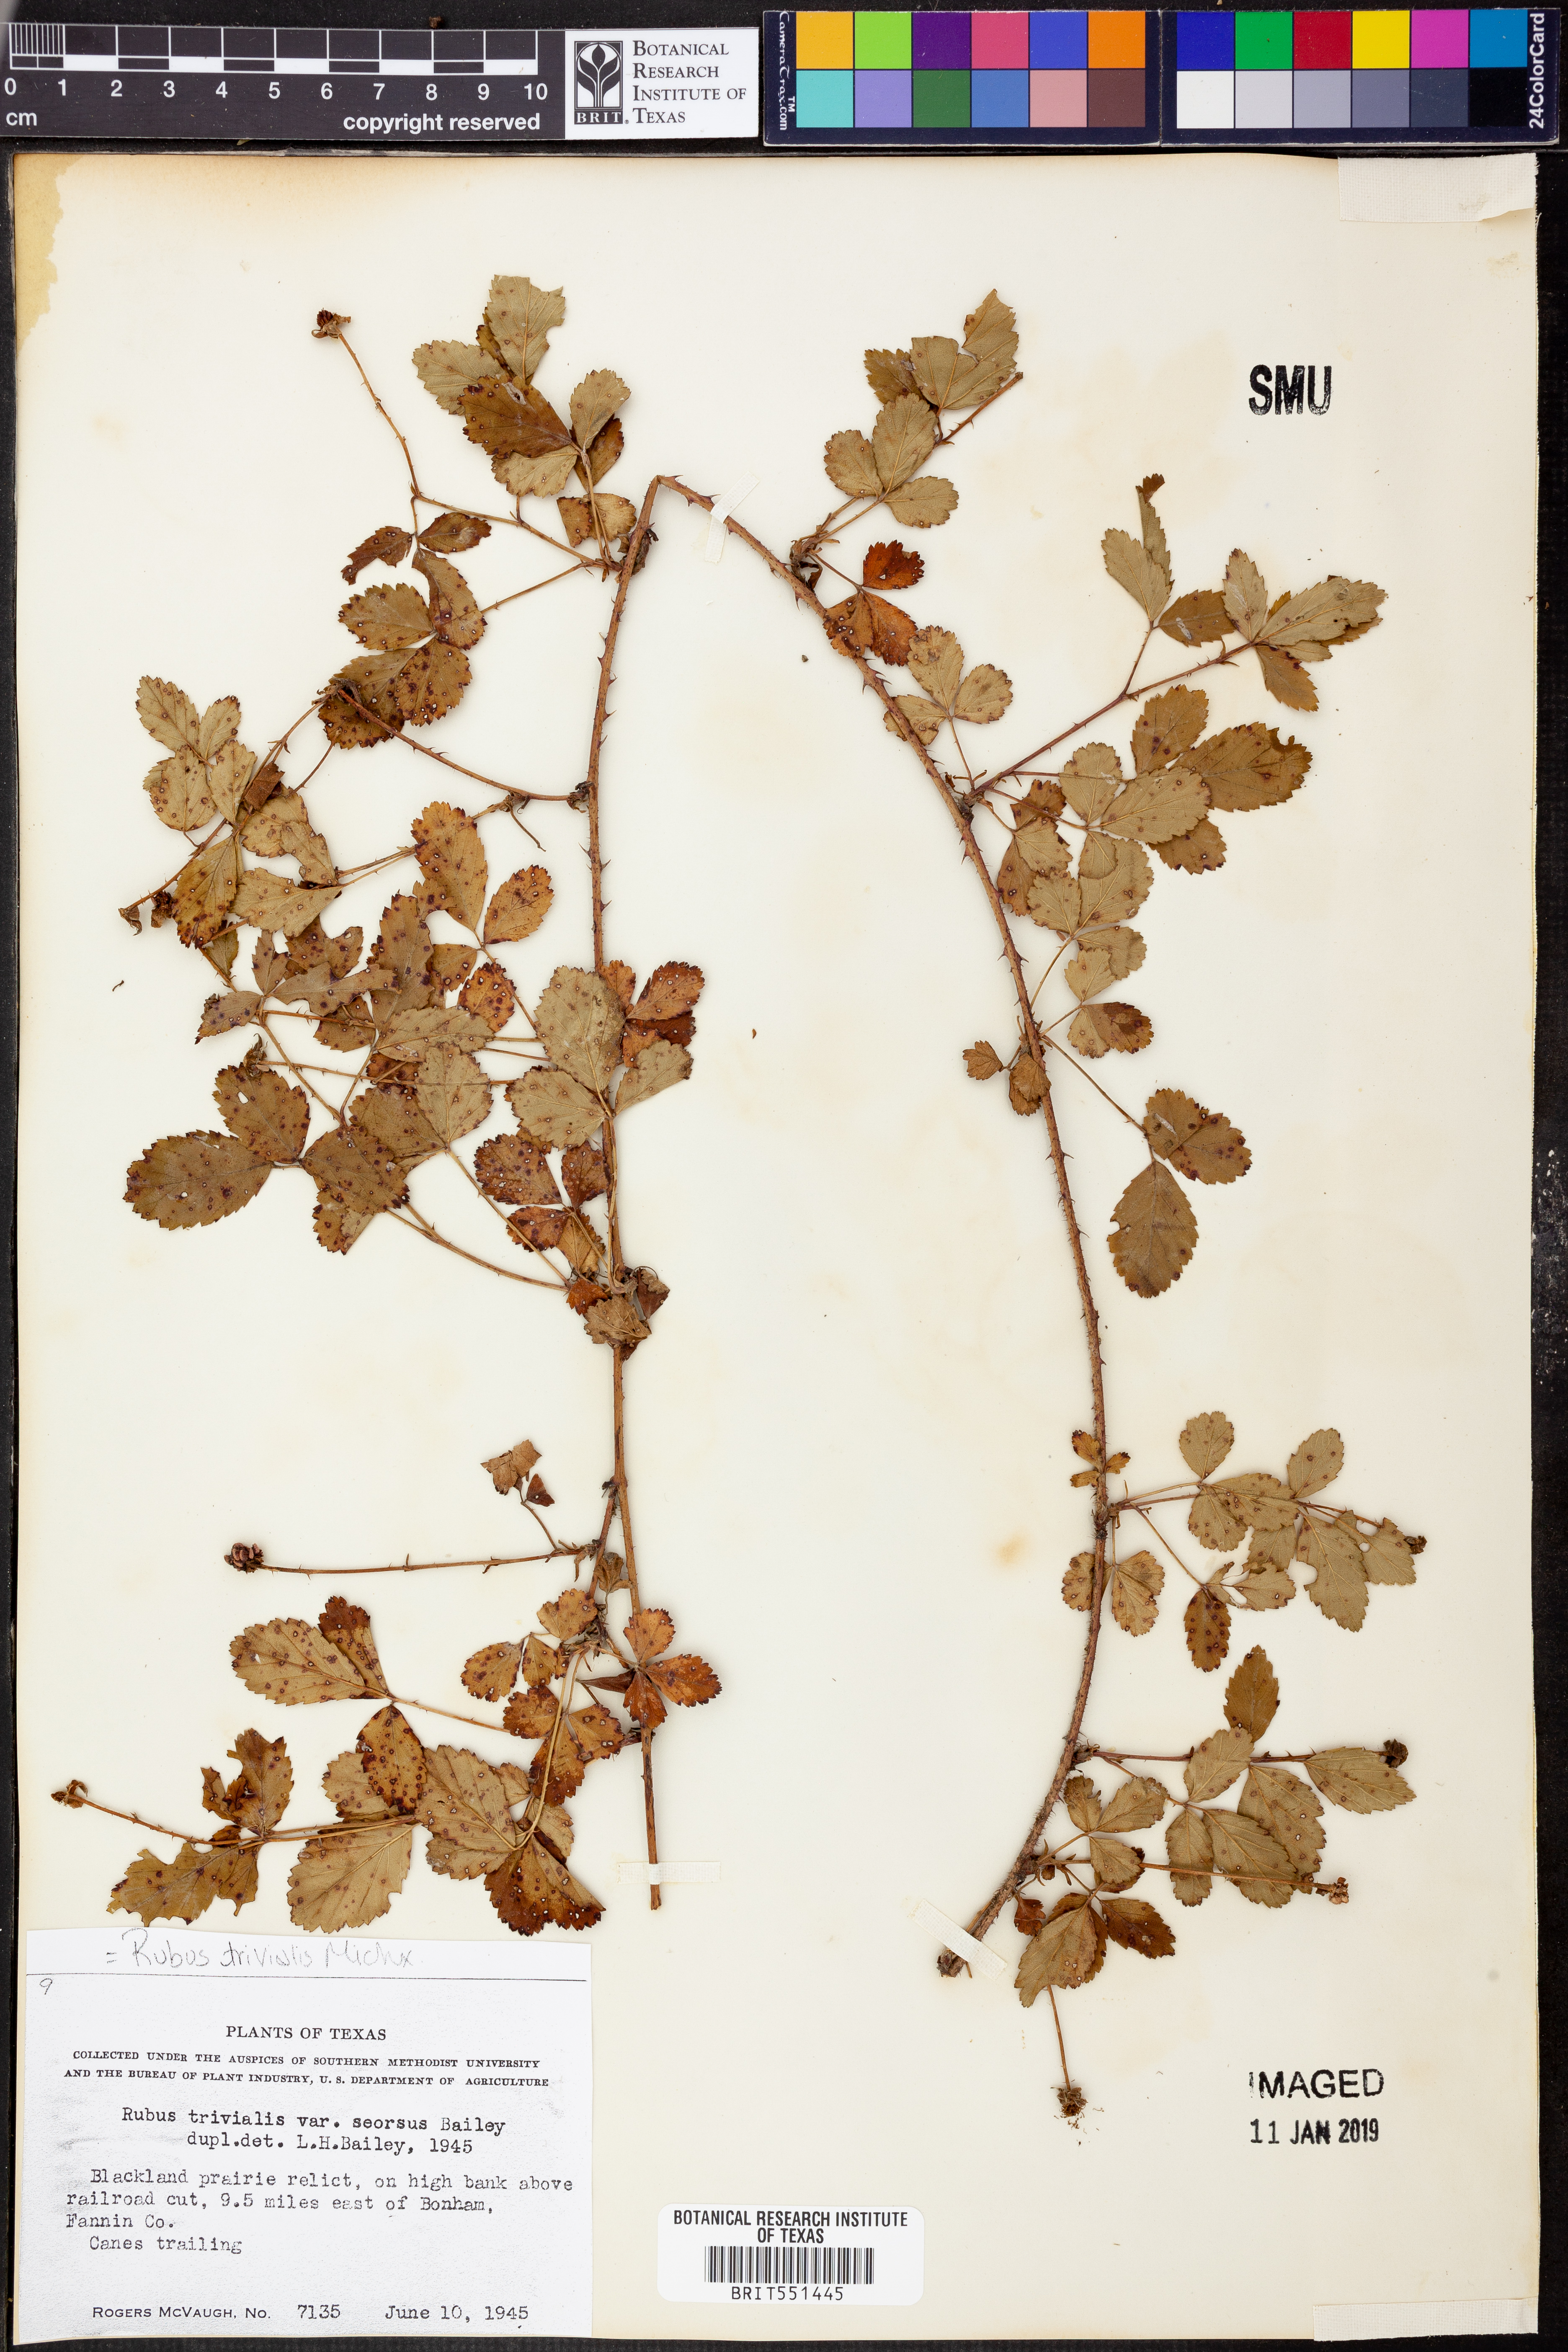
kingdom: Plantae
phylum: Tracheophyta
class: Magnoliopsida
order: Rosales
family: Rosaceae
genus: Rubus
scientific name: Rubus trivialis
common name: Southern dewberry
